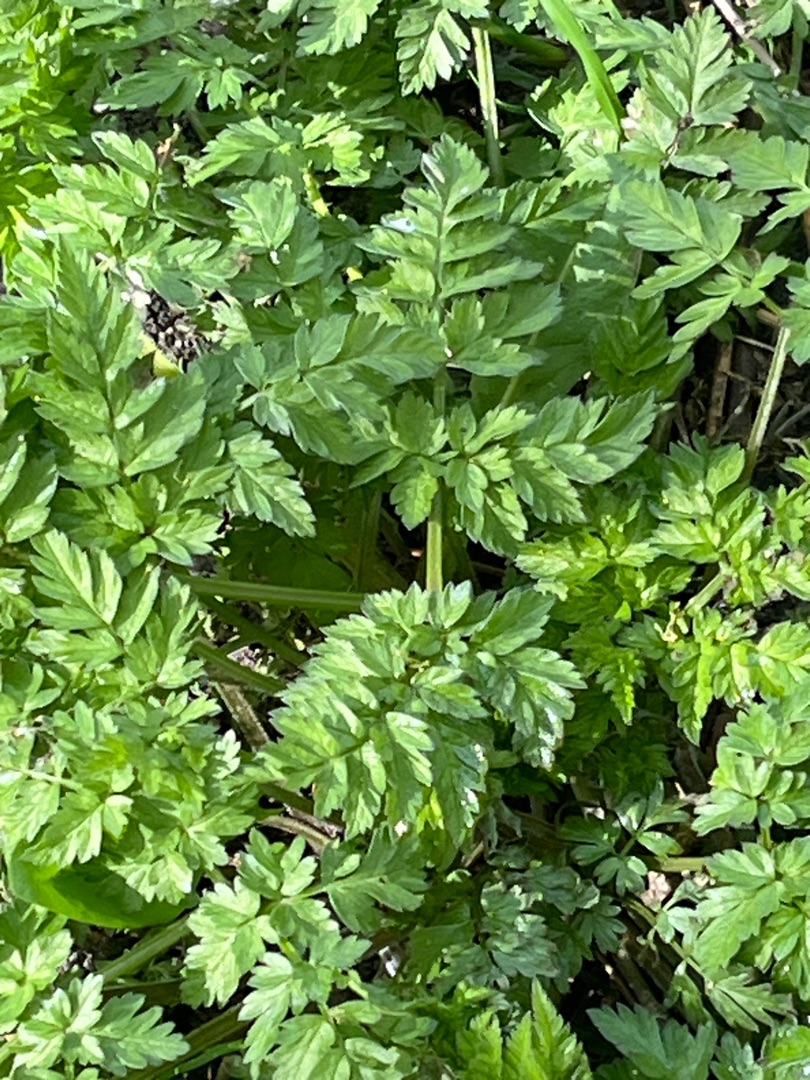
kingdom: Plantae
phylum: Tracheophyta
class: Magnoliopsida
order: Apiales
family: Apiaceae
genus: Anthriscus
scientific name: Anthriscus sylvestris
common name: Vild kørvel
